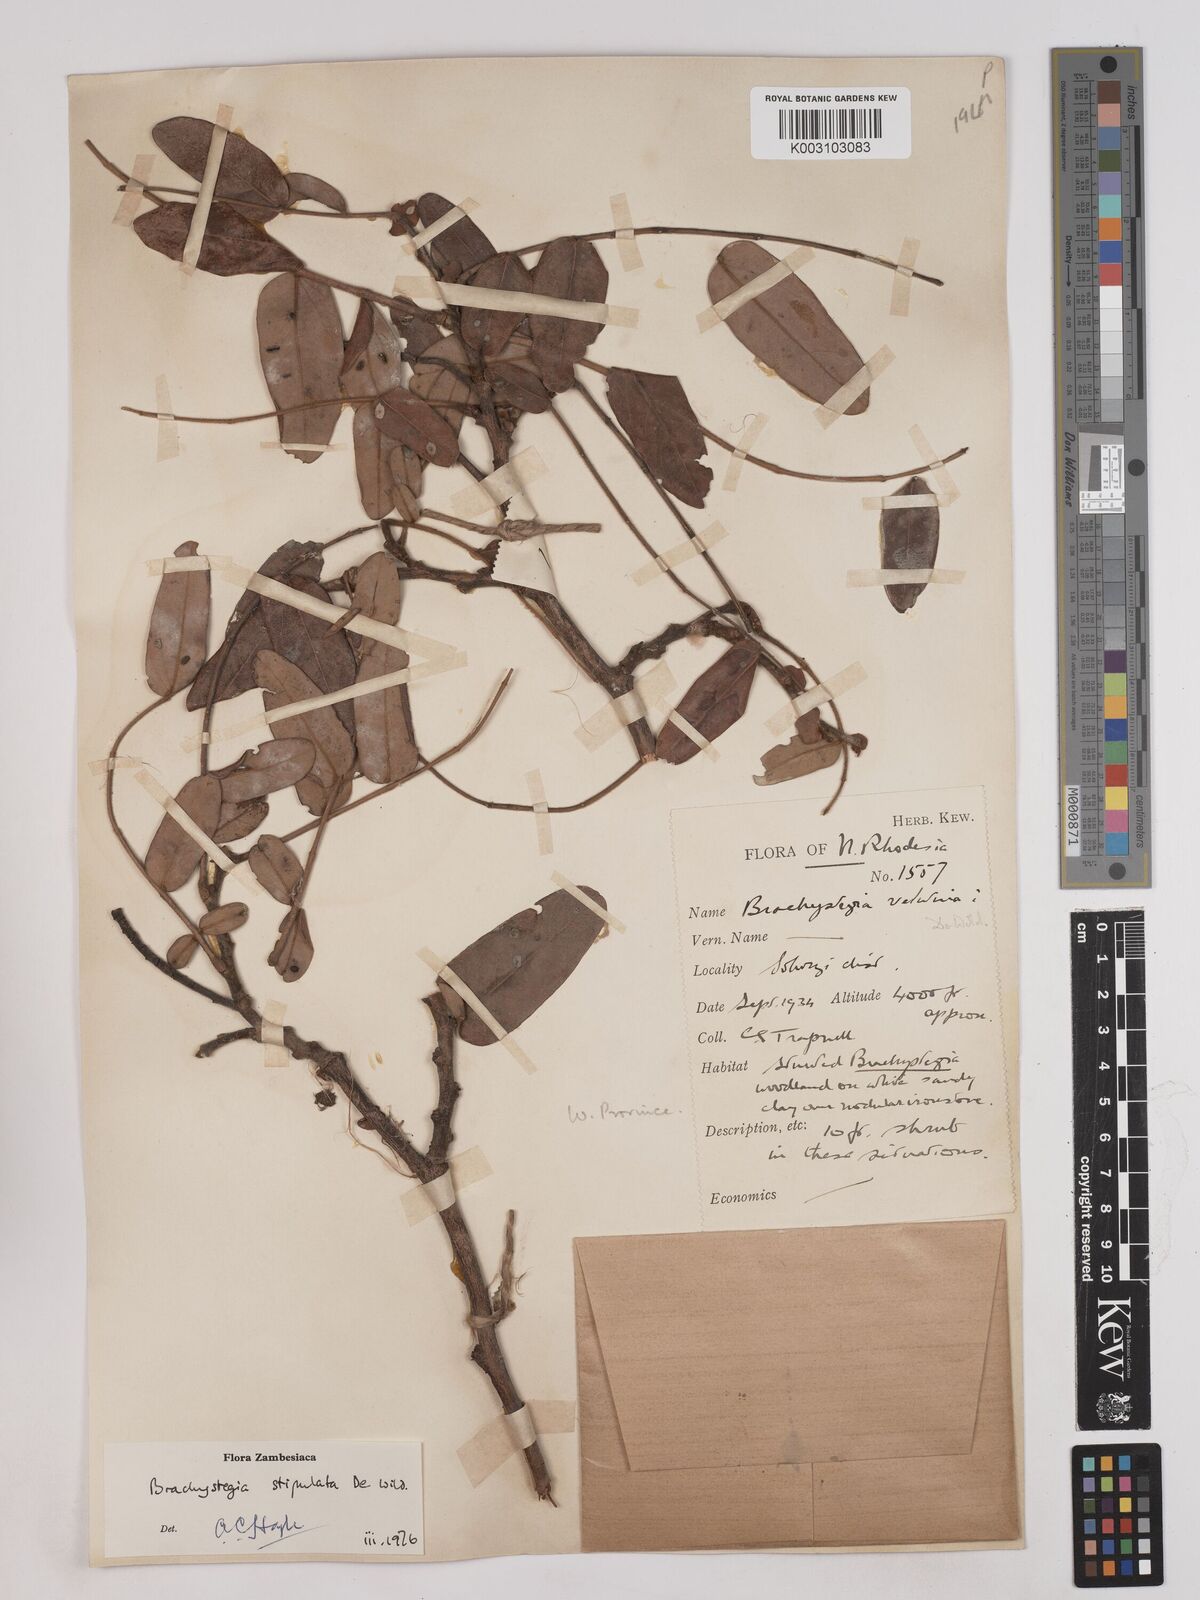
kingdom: Plantae
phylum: Tracheophyta
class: Magnoliopsida
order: Fabales
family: Fabaceae
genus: Brachystegia
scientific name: Brachystegia stipulata
